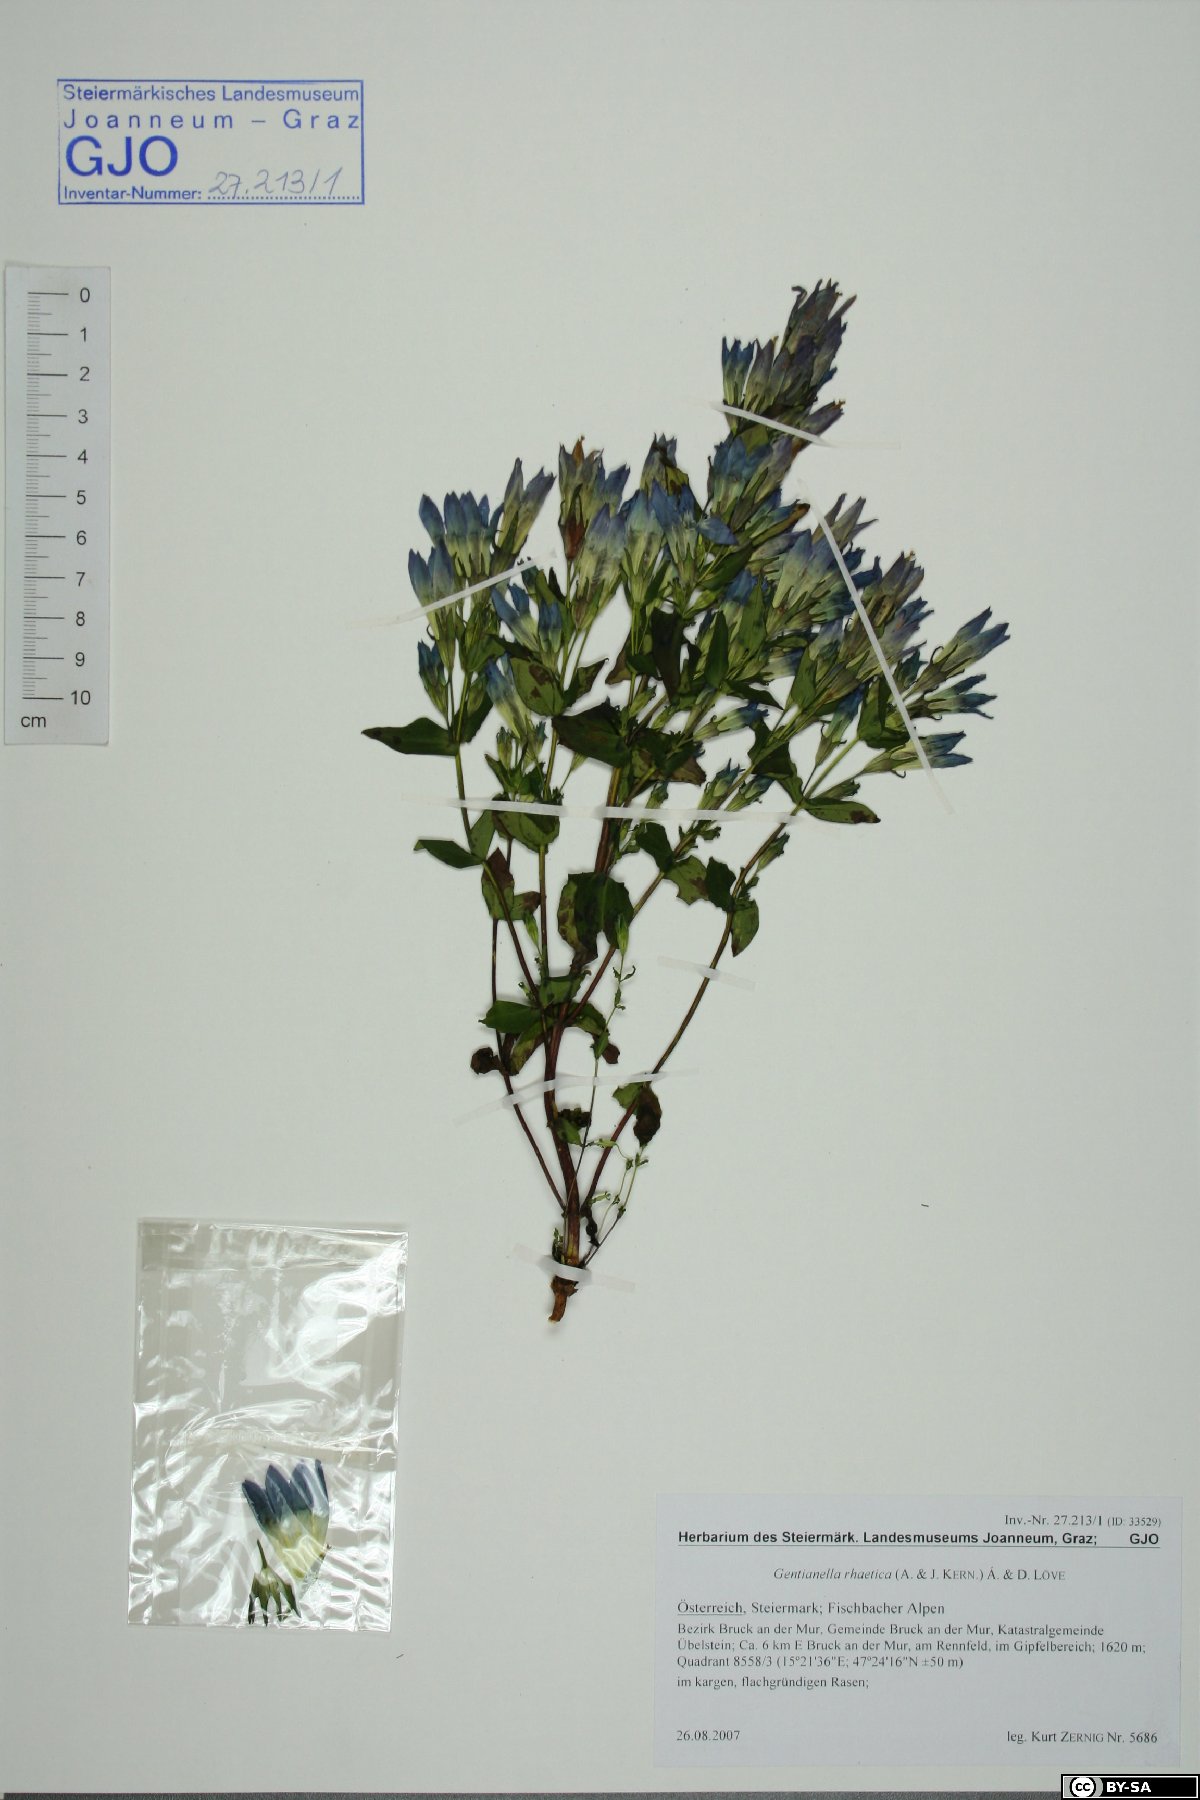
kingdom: Plantae
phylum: Tracheophyta
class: Magnoliopsida
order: Gentianales
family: Gentianaceae
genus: Gentianella
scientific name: Gentianella rhaetica
